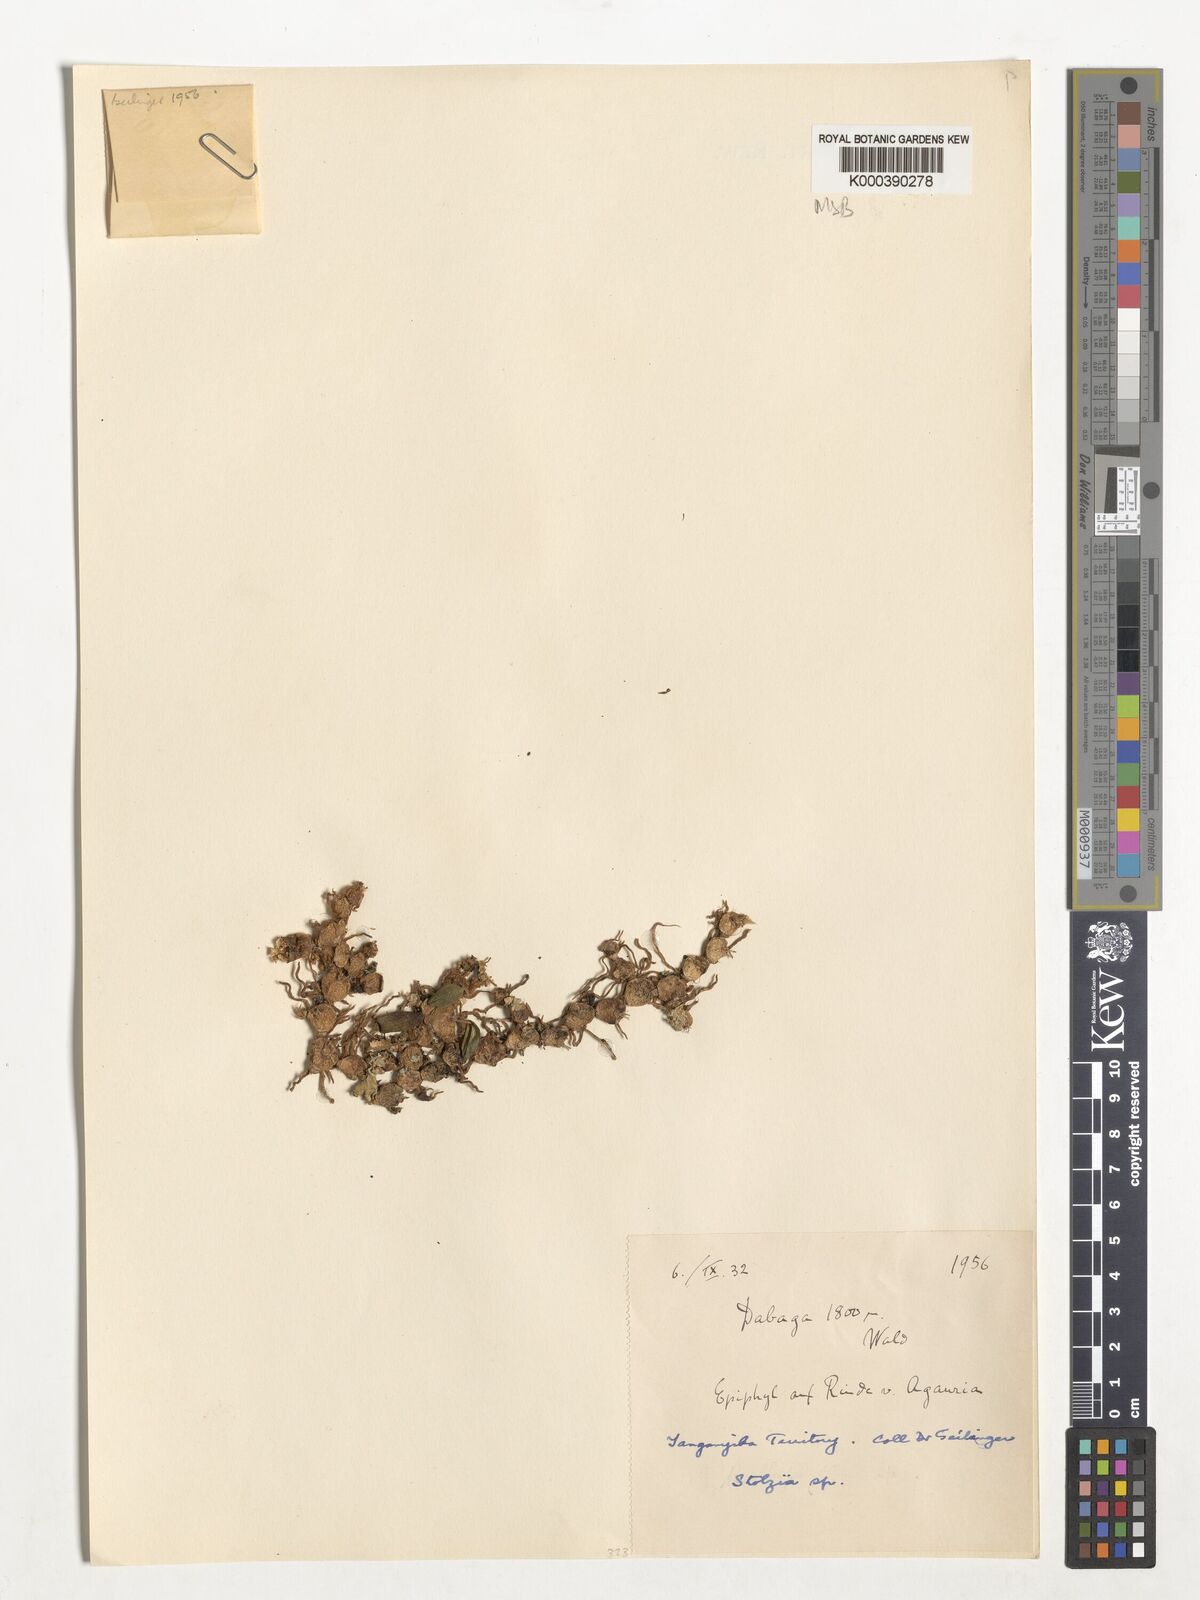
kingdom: Plantae
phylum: Tracheophyta
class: Liliopsida
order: Asparagales
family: Orchidaceae
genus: Porpax
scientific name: Porpax compacta
